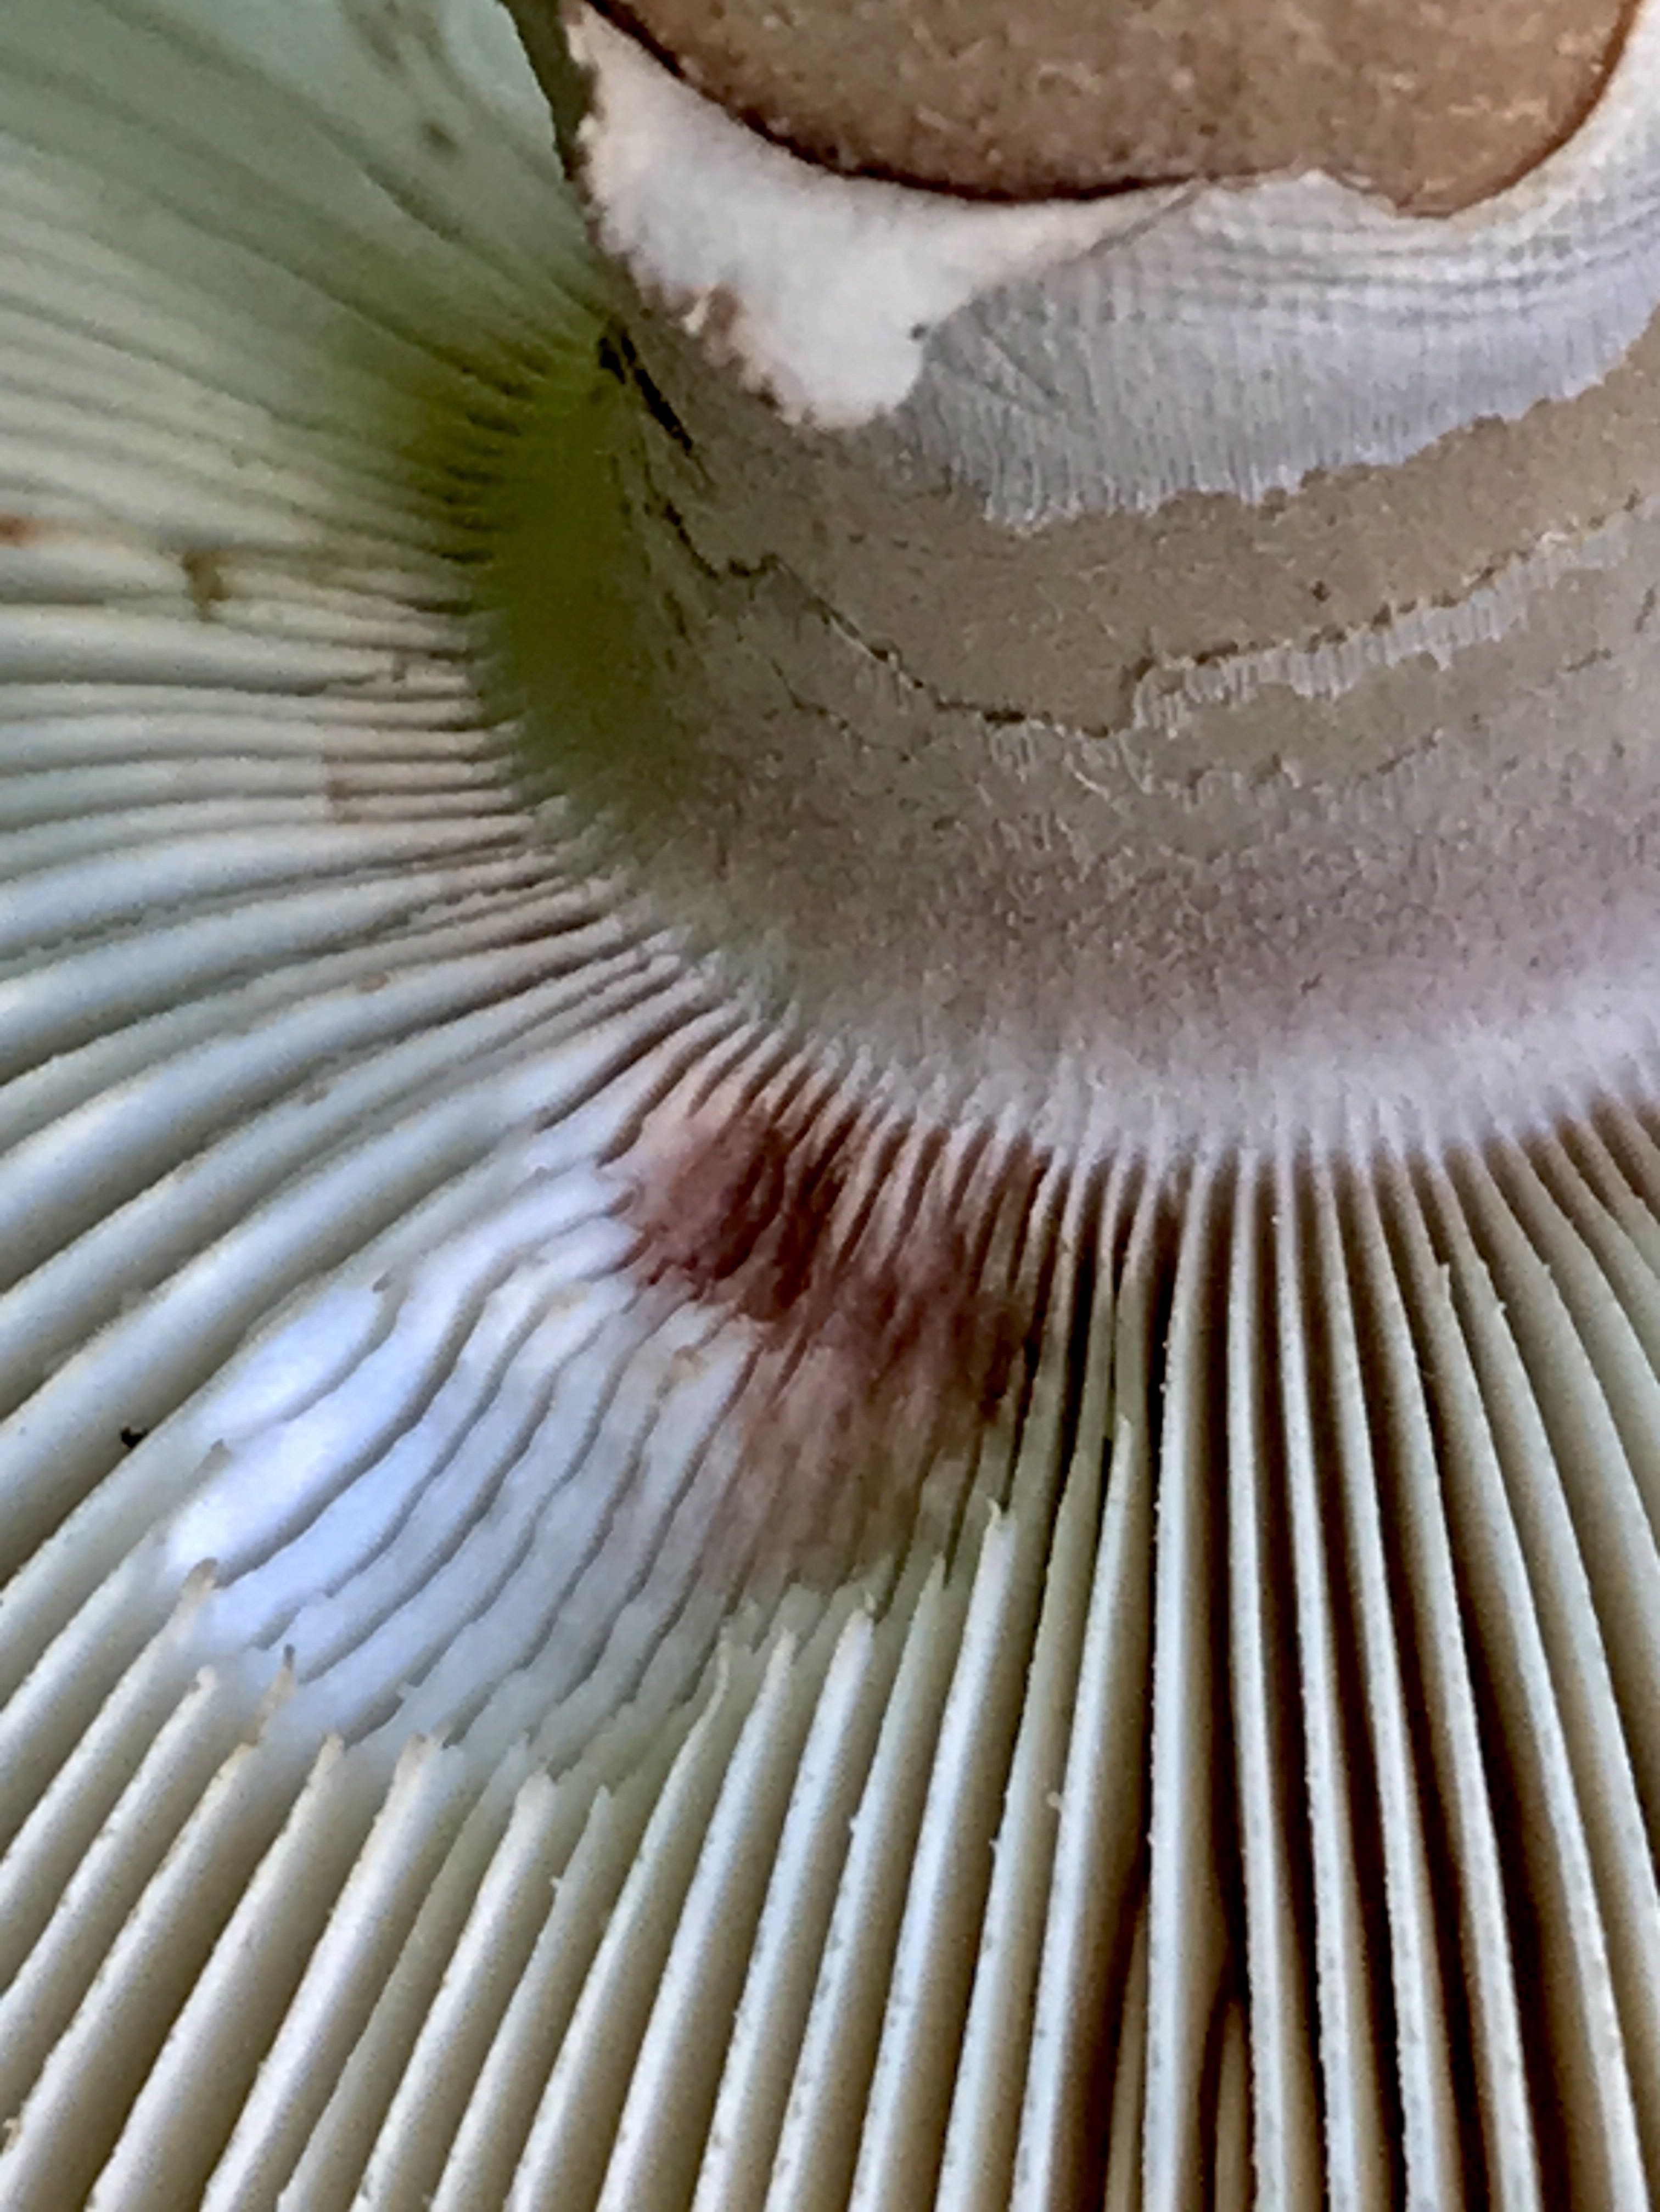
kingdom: Fungi
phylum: Basidiomycota
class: Agaricomycetes
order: Agaricales
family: Amanitaceae
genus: Amanita
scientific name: Amanita rubescens
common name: rødmende fluesvamp
